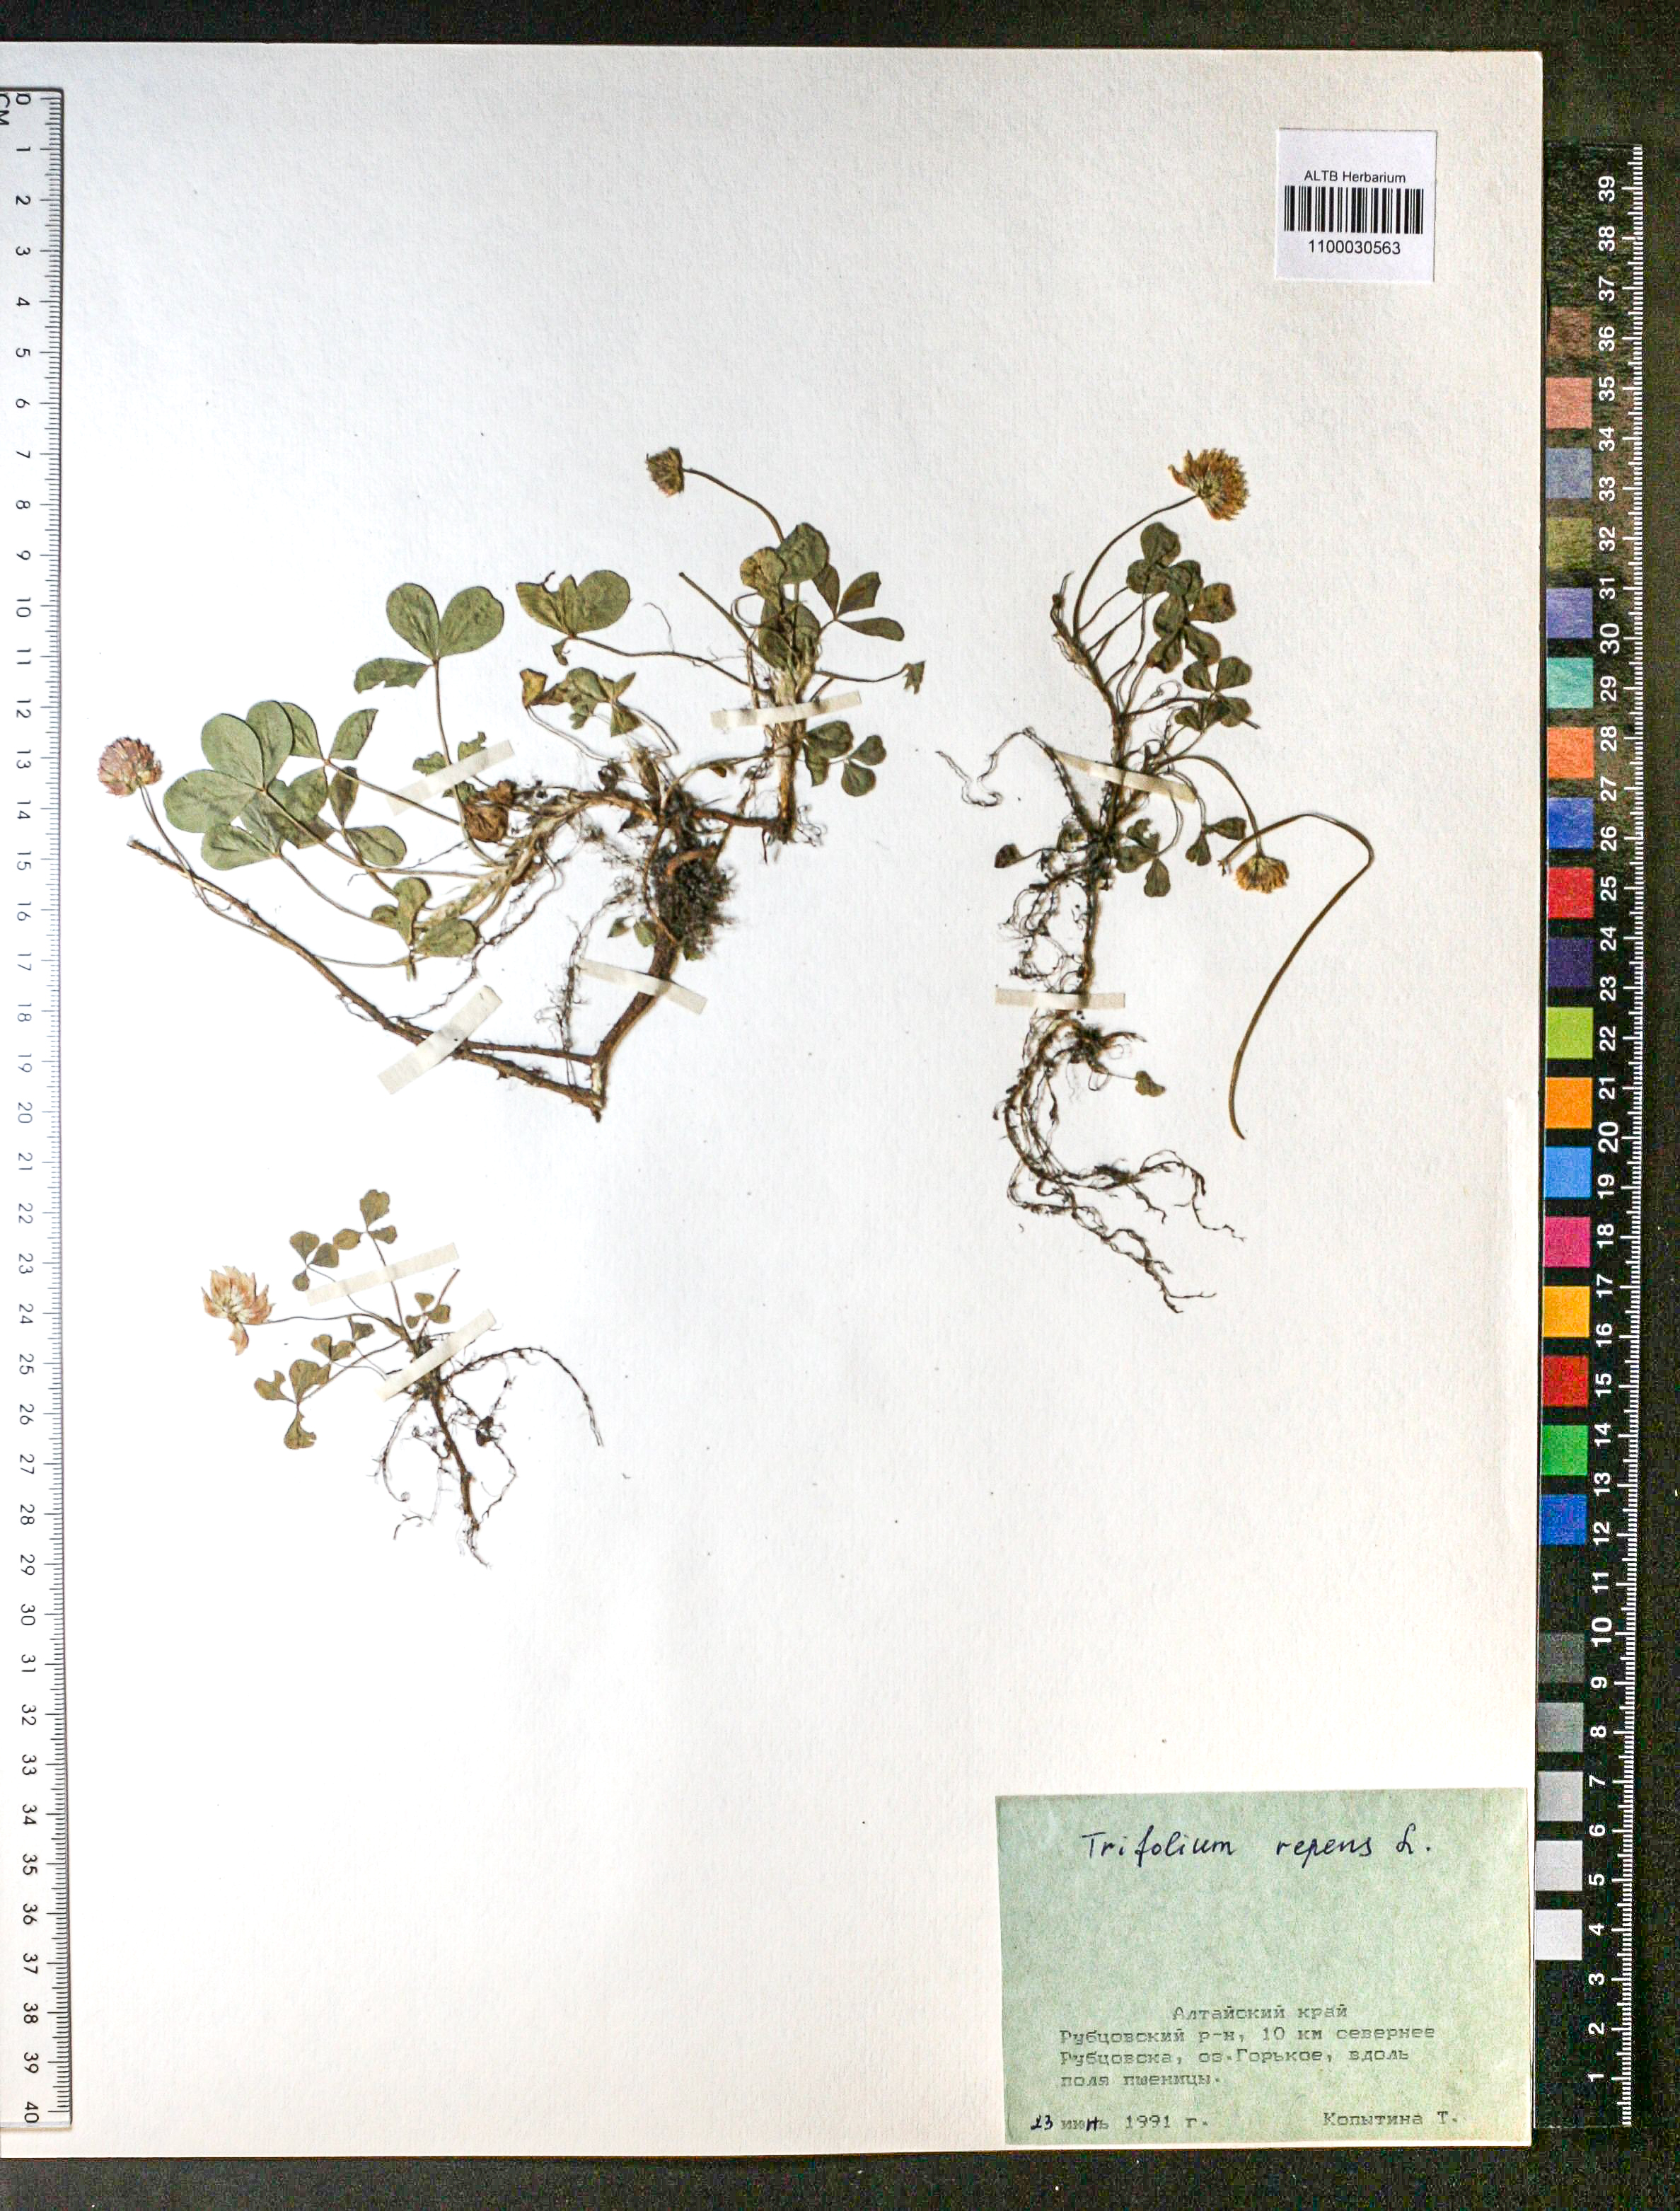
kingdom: Plantae
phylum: Tracheophyta
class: Magnoliopsida
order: Fabales
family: Fabaceae
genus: Trifolium
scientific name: Trifolium repens
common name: White clover
